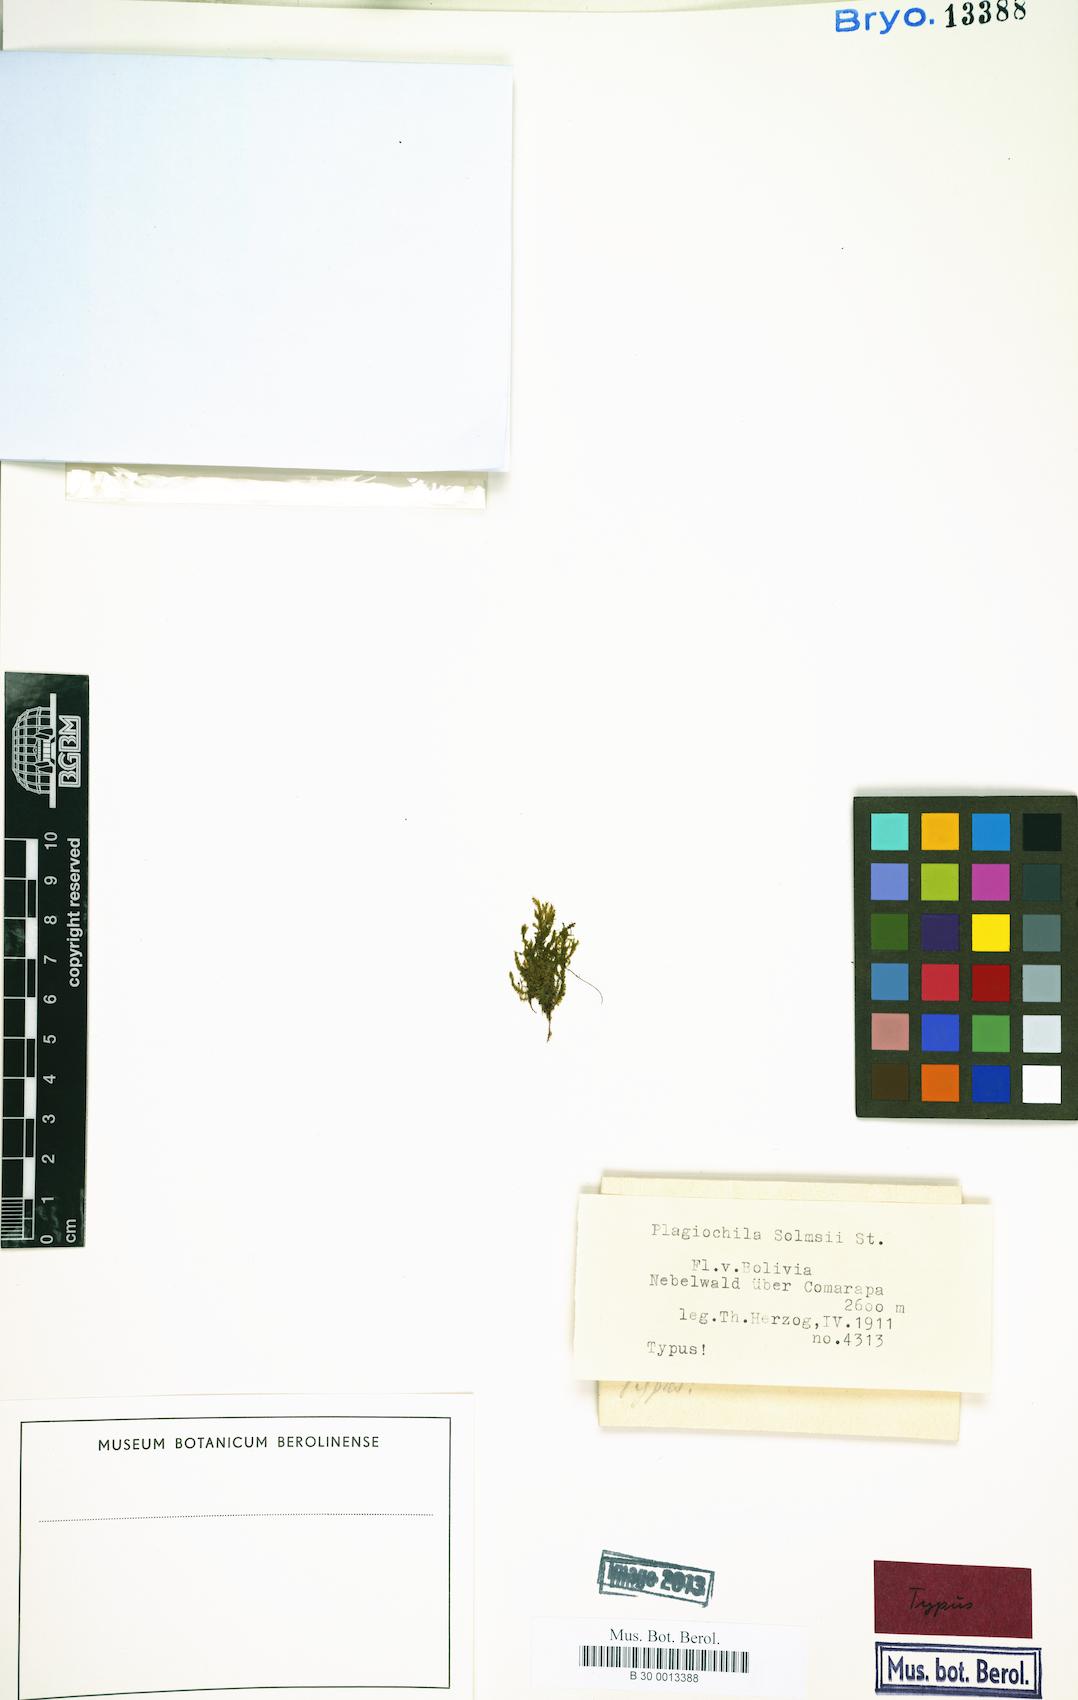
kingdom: Plantae
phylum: Marchantiophyta
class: Jungermanniopsida
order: Jungermanniales
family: Plagiochilaceae
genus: Plagiochila
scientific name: Plagiochila papillifolia
